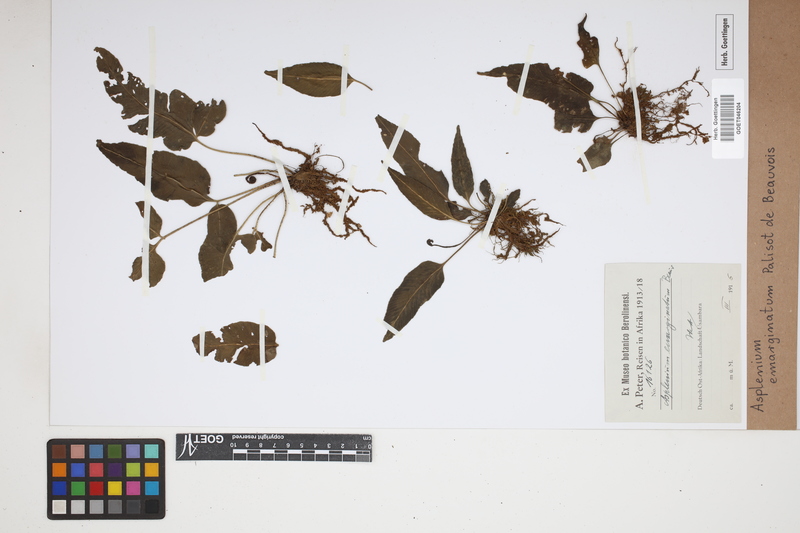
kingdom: Plantae
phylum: Tracheophyta
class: Polypodiopsida
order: Polypodiales
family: Aspleniaceae
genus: Asplenium
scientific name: Asplenium emarginatum
